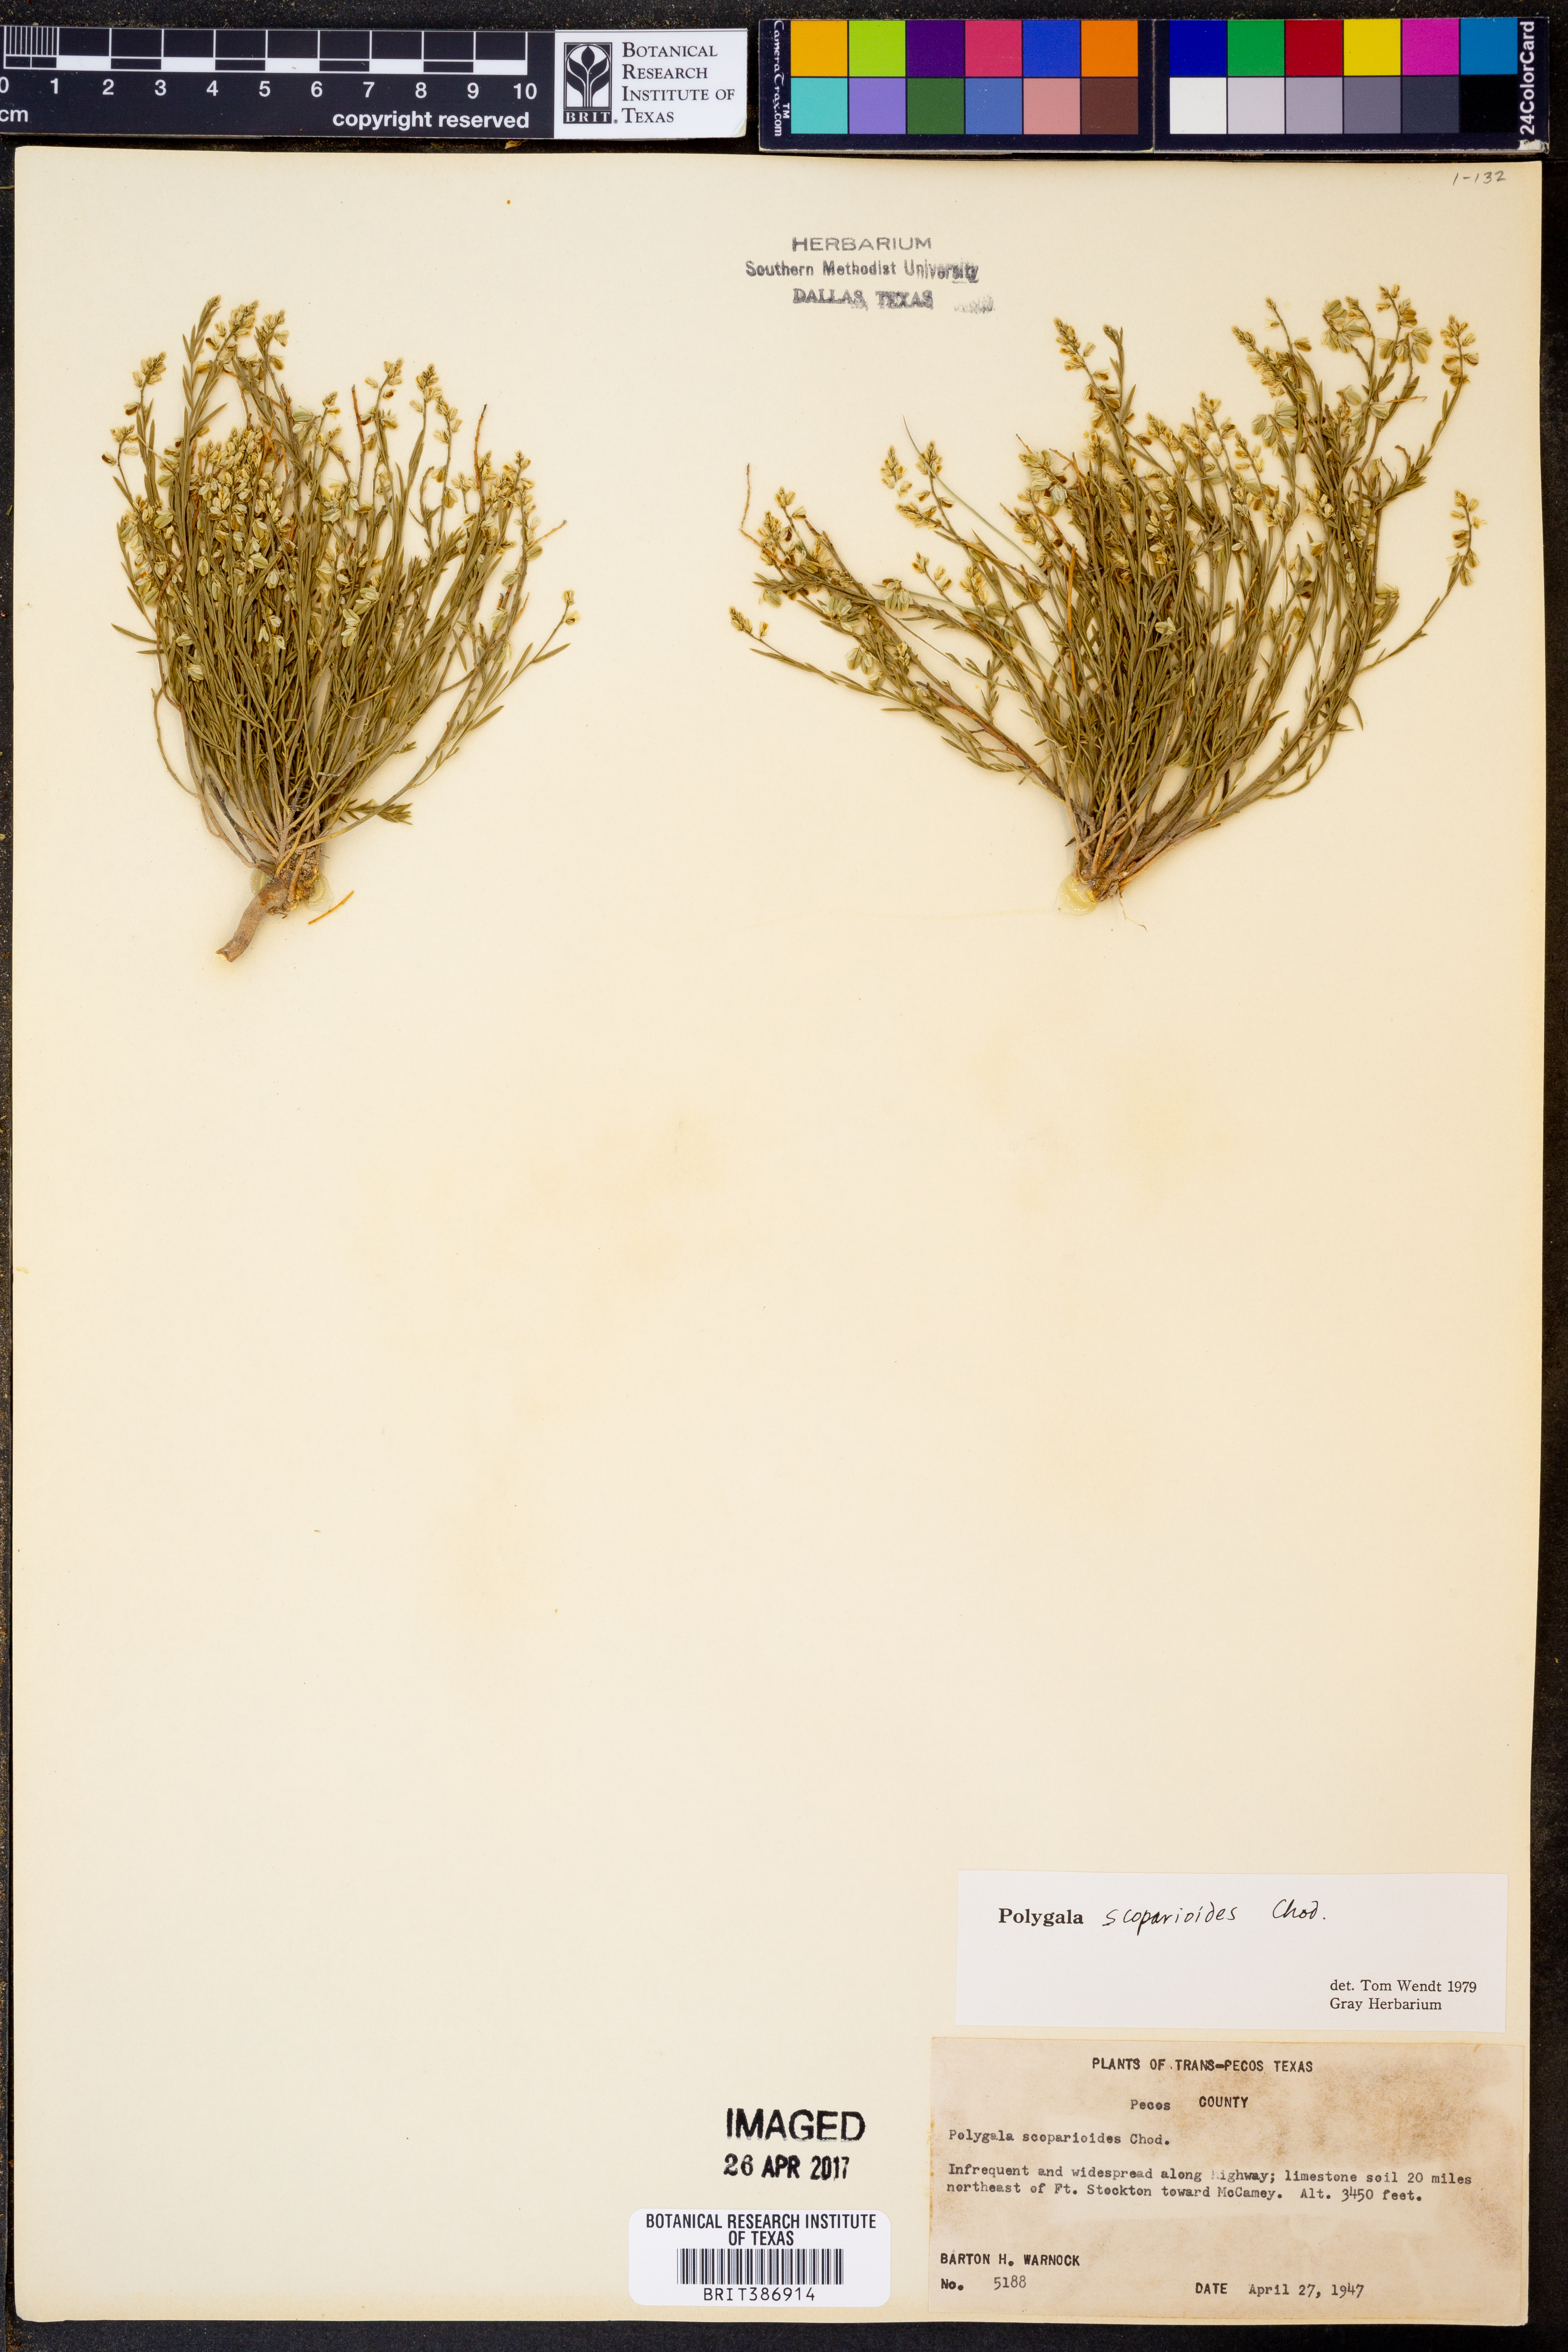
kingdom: Plantae
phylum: Tracheophyta
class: Magnoliopsida
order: Fabales
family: Polygalaceae
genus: Polygala
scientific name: Polygala scoparioides
